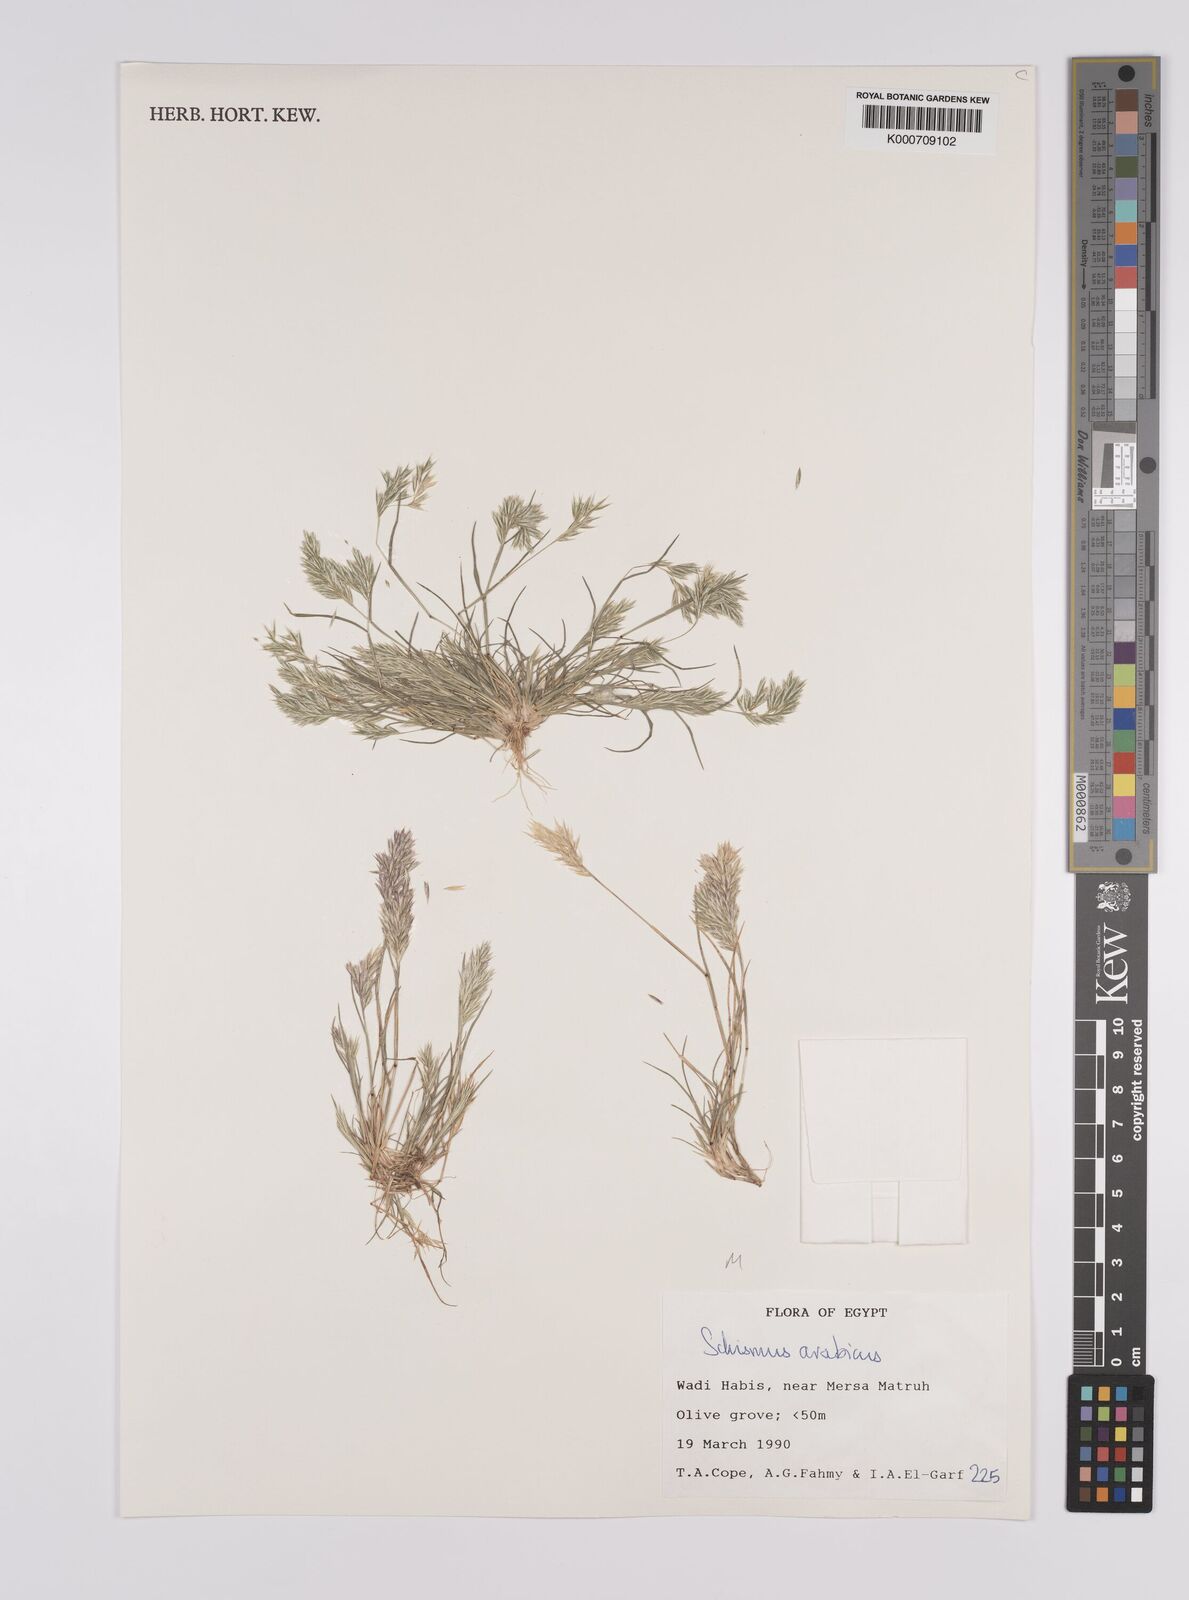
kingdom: Plantae
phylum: Tracheophyta
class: Liliopsida
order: Poales
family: Poaceae
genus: Schismus
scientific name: Schismus arabicus
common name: Arabian schismus
